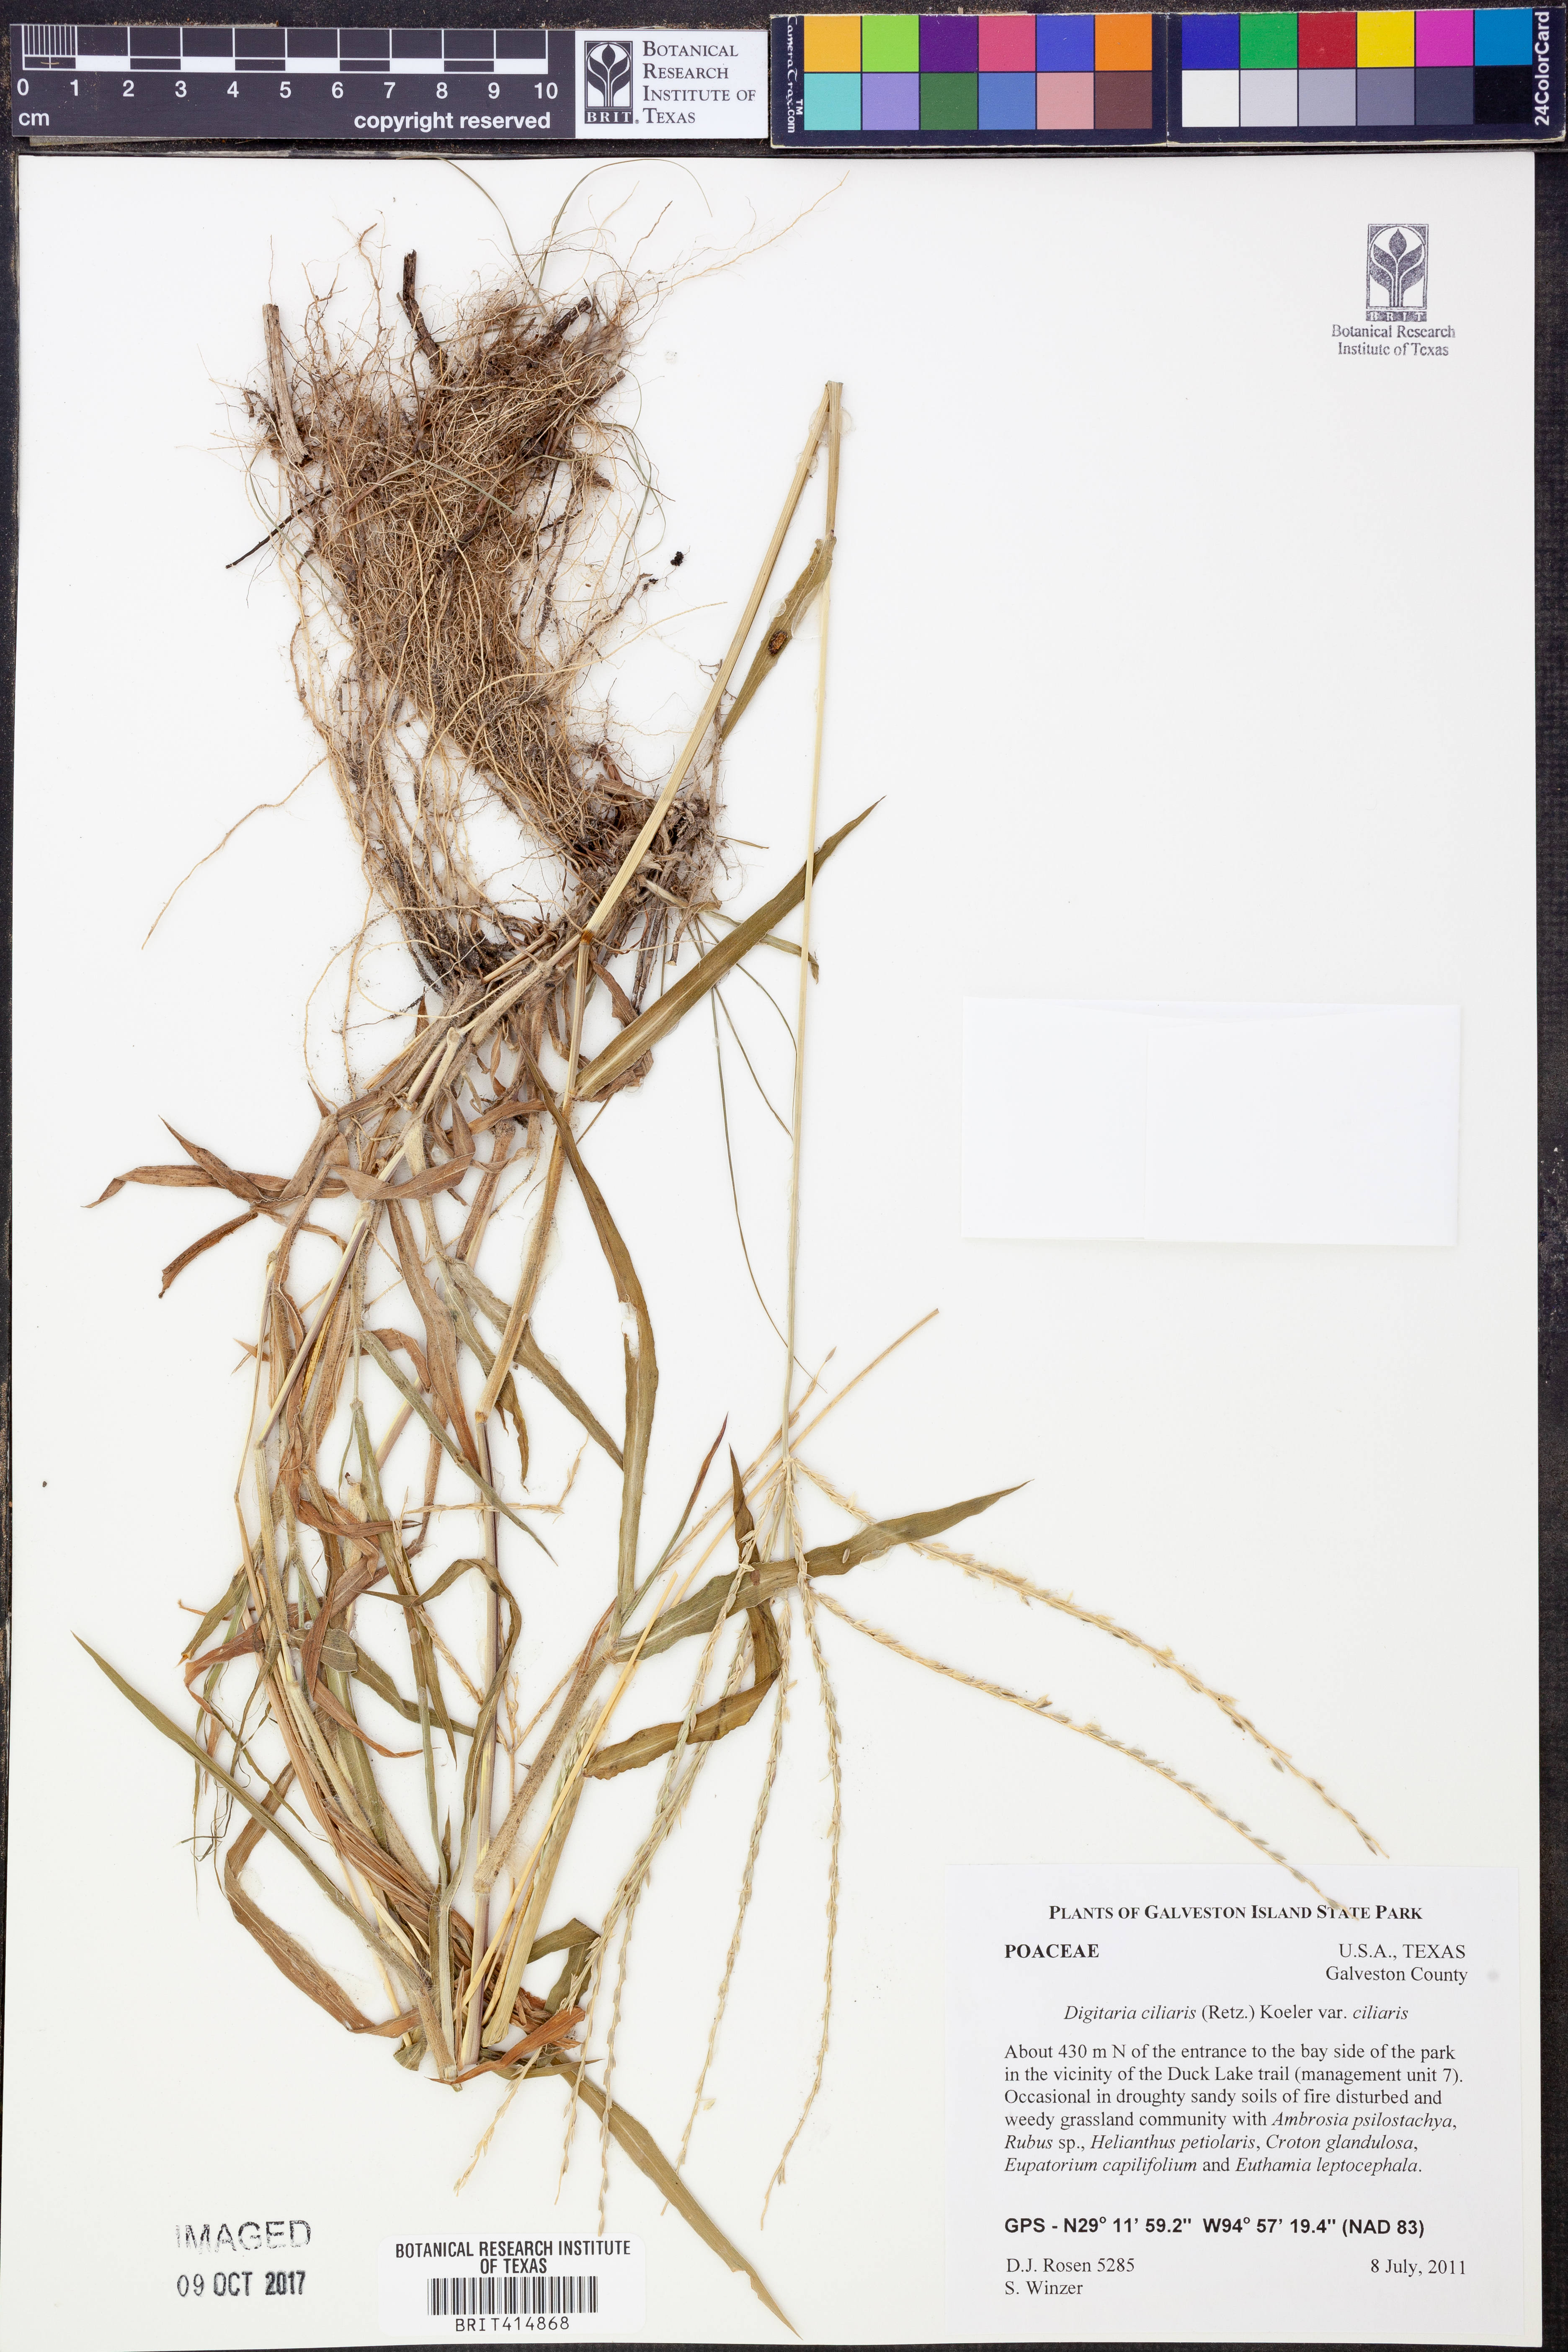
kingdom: Plantae
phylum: Tracheophyta
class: Liliopsida
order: Poales
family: Poaceae
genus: Digitaria
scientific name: Digitaria ciliaris
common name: Tropical finger-grass
